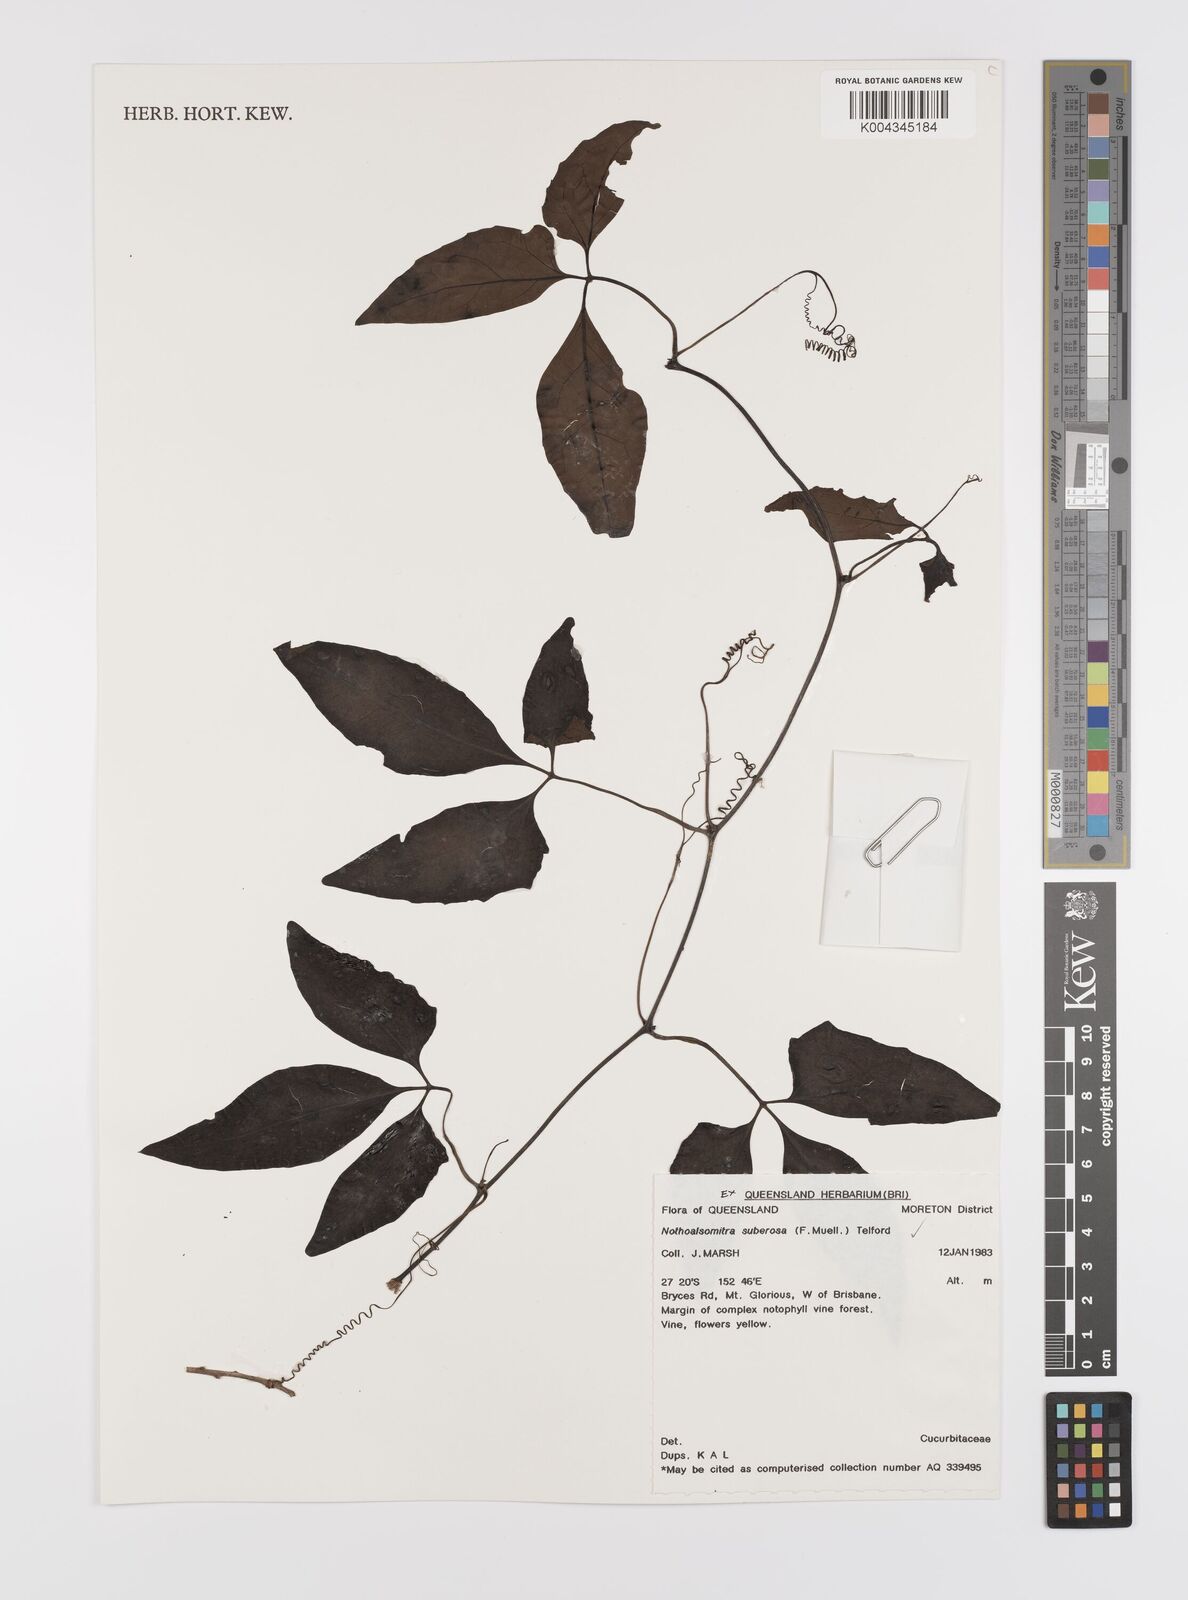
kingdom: Plantae
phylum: Tracheophyta
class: Magnoliopsida
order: Cucurbitales
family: Cucurbitaceae
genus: Nothoalsomitra
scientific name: Nothoalsomitra suberosa
